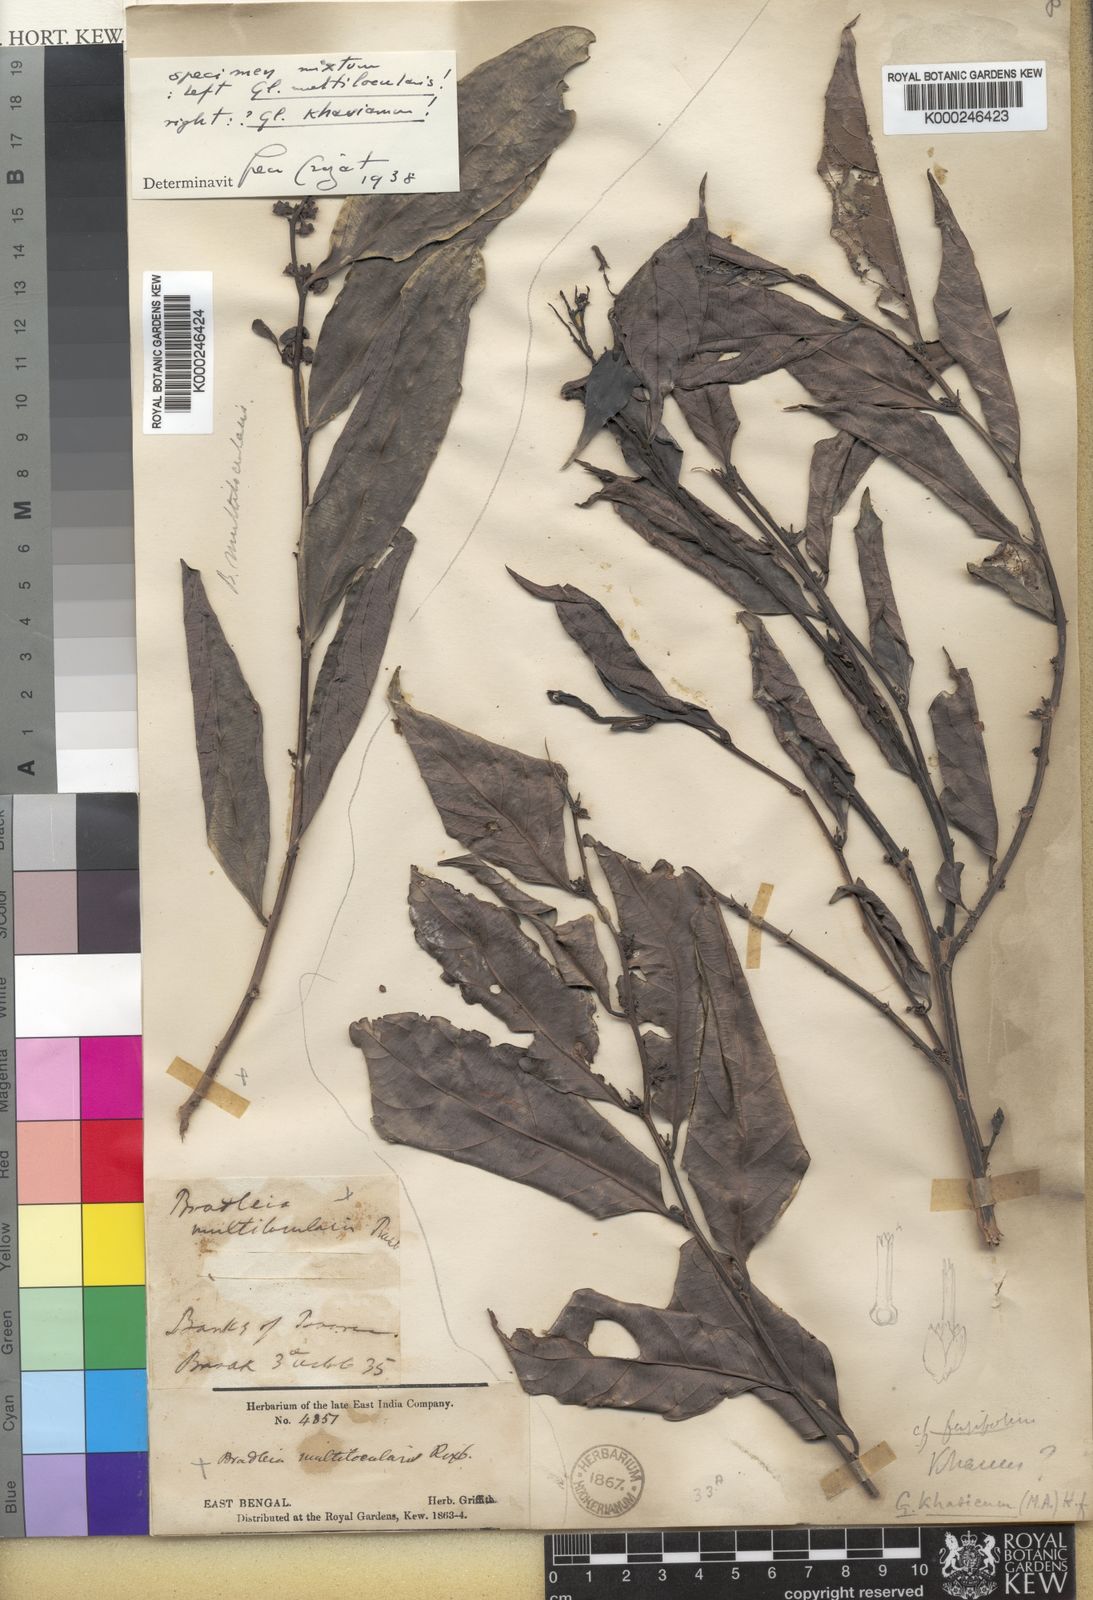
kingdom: Plantae
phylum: Tracheophyta
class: Magnoliopsida
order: Malpighiales
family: Phyllanthaceae
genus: Glochidion
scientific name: Glochidion khasicum
